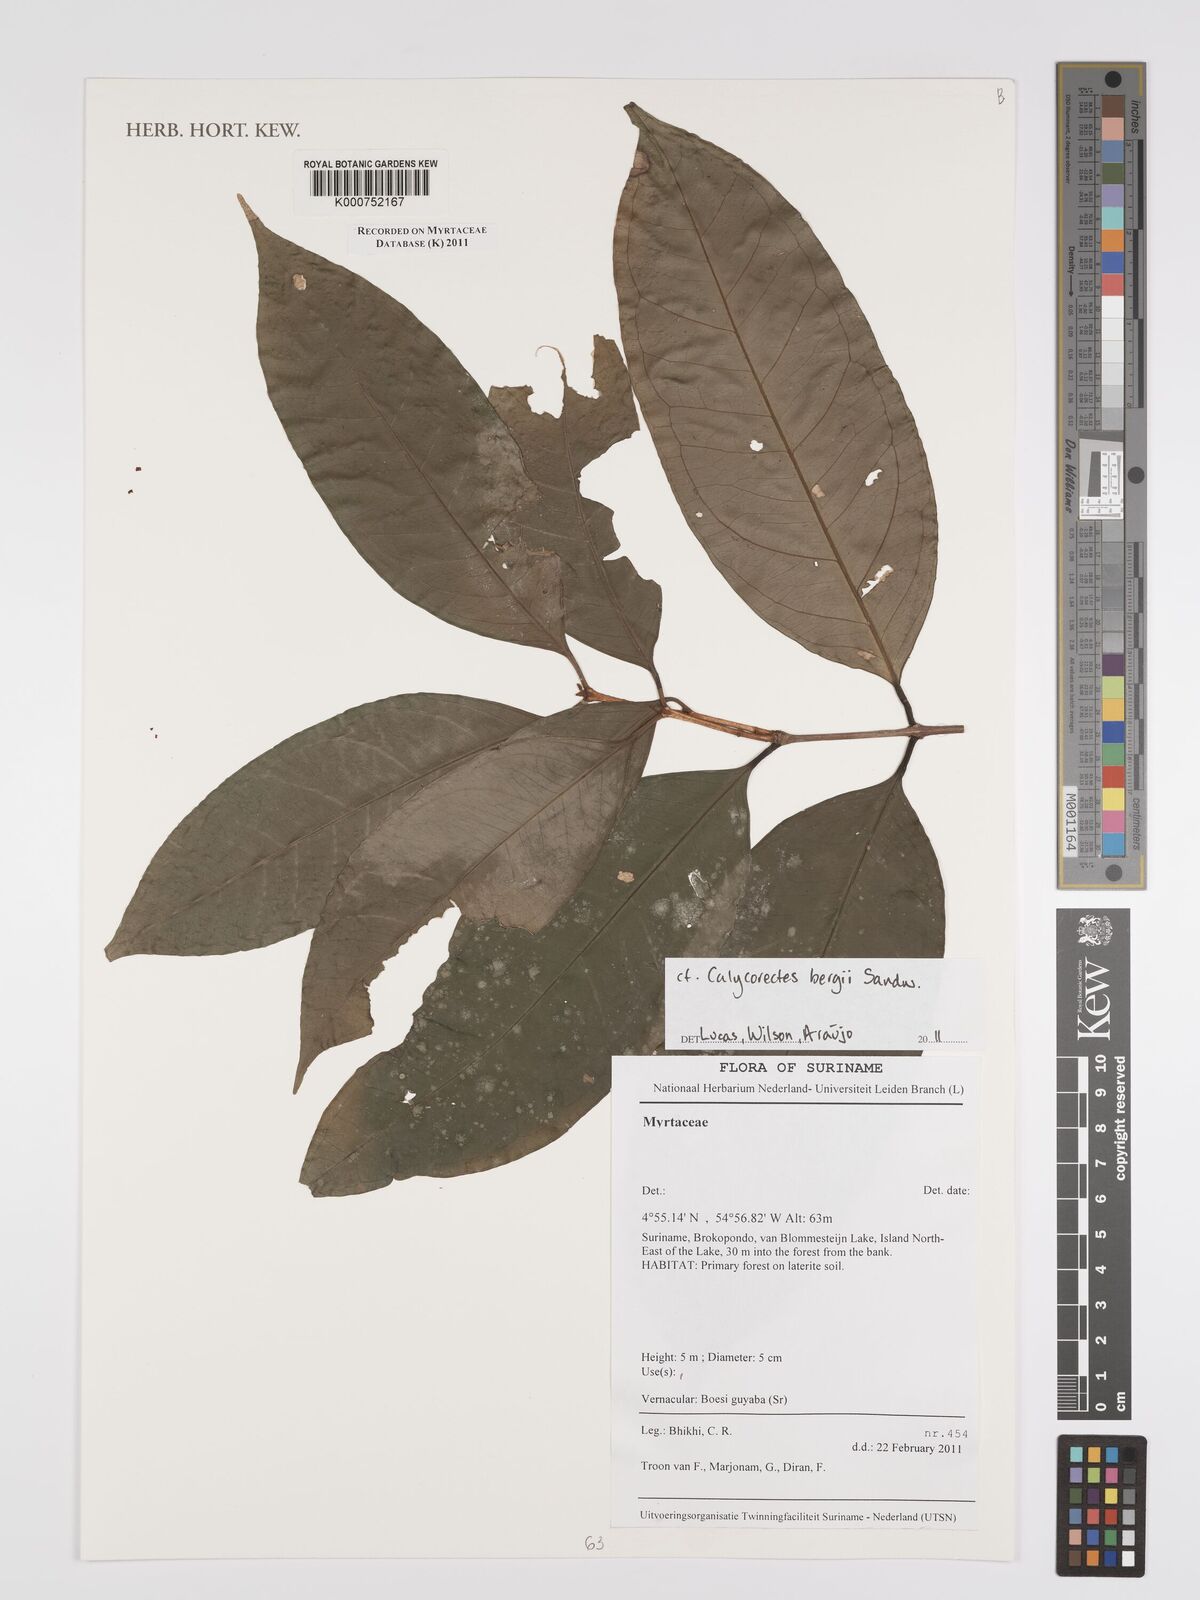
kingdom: Plantae
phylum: Tracheophyta
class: Magnoliopsida
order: Myrtales
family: Myrtaceae
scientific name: Myrtaceae
